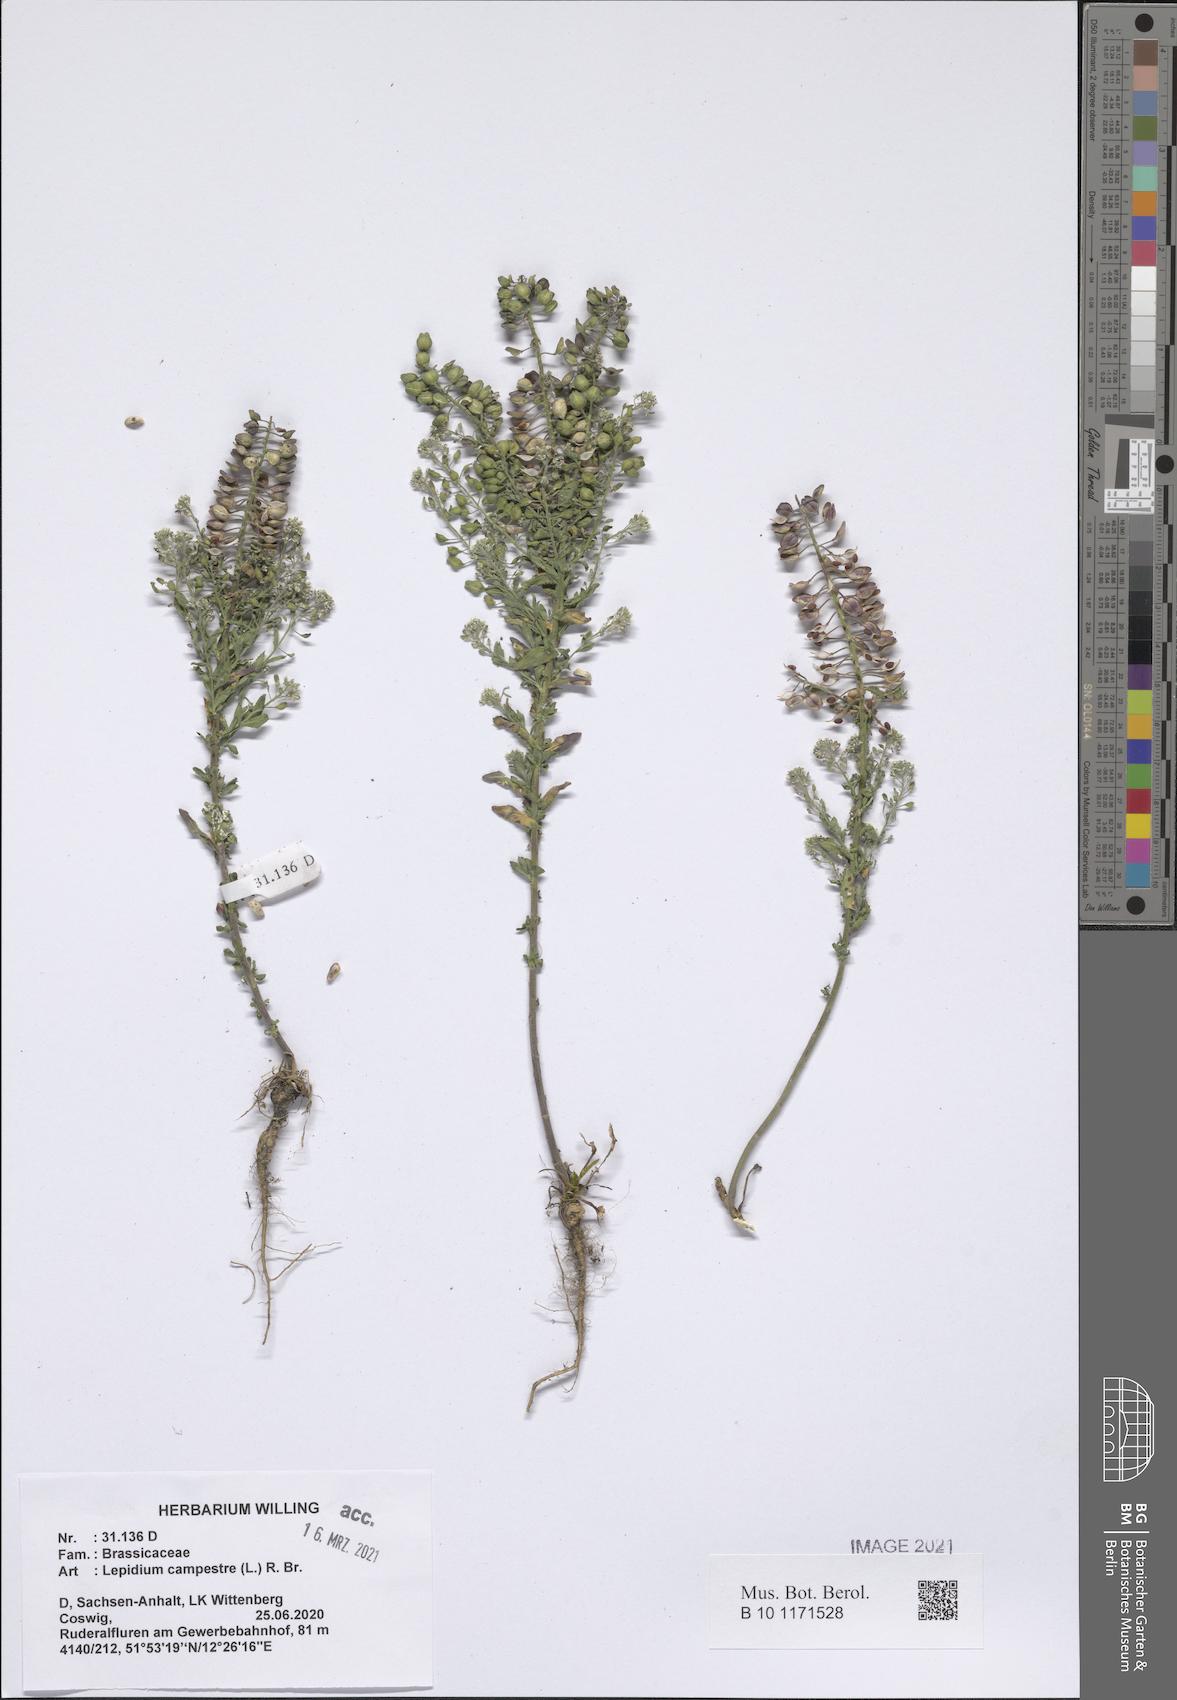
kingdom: Plantae
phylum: Tracheophyta
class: Magnoliopsida
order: Brassicales
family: Brassicaceae
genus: Lepidium
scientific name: Lepidium campestre
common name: Field pepperwort
